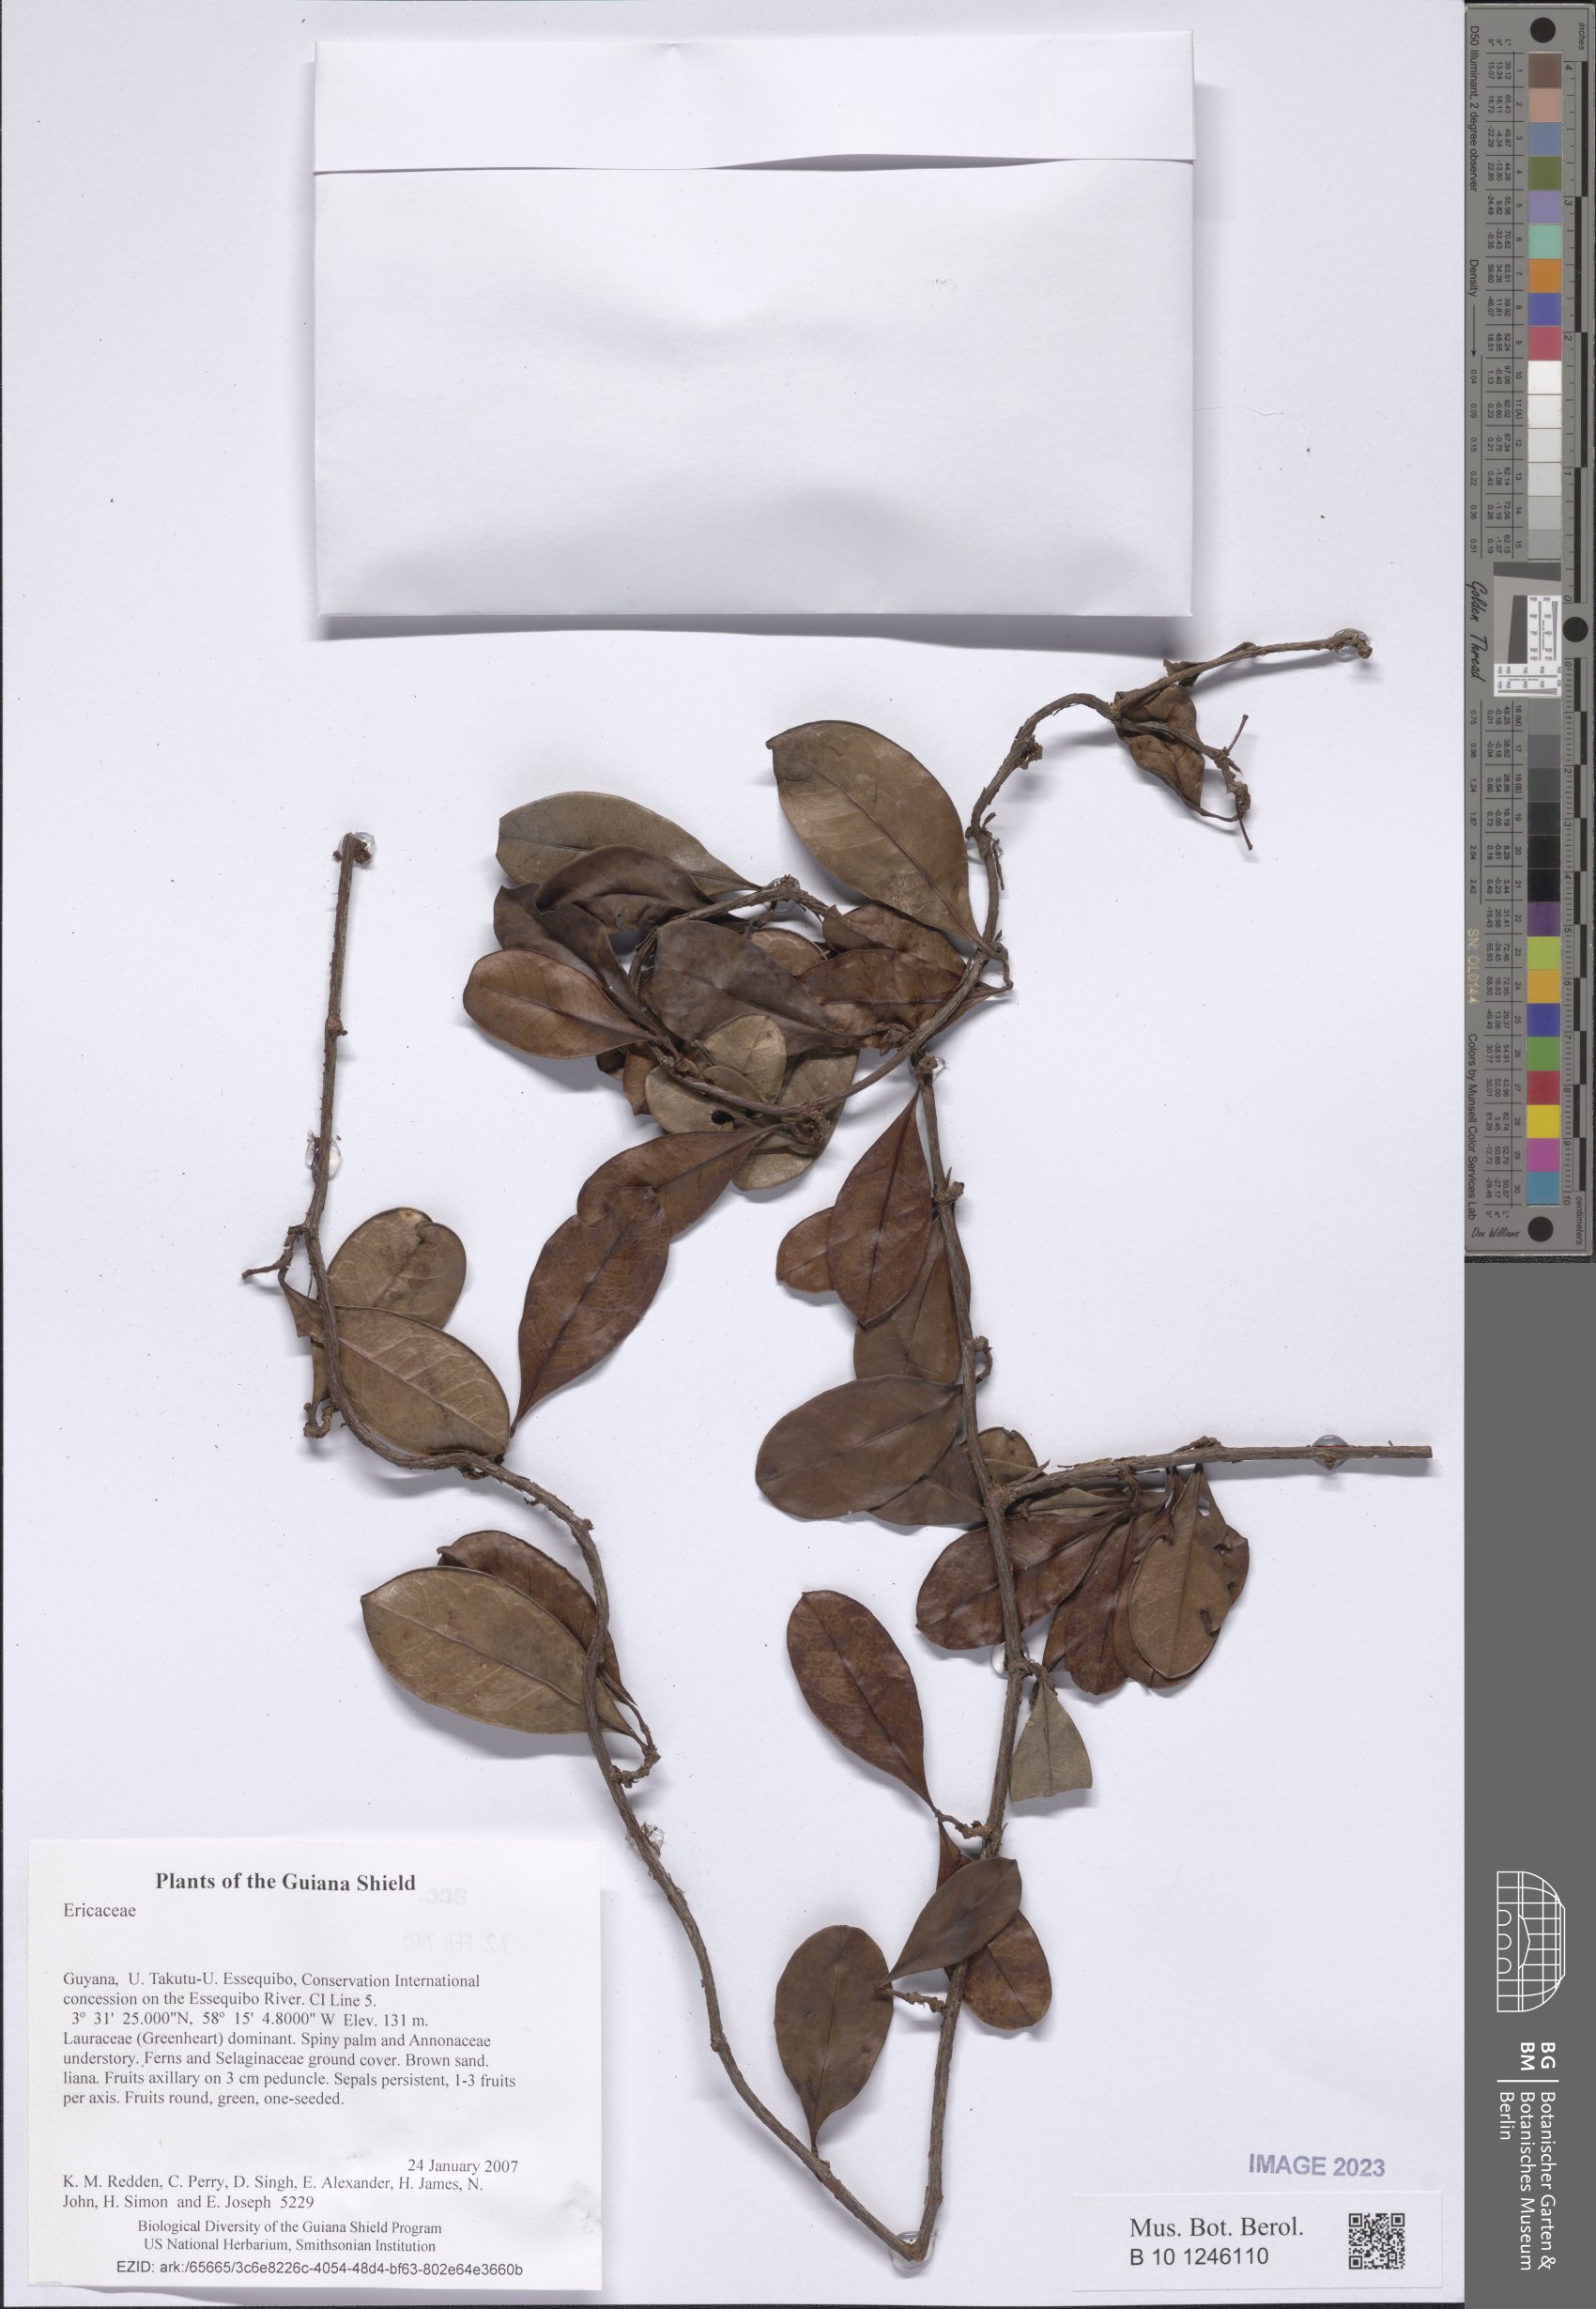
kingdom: Plantae
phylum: Tracheophyta
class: Magnoliopsida
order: Ericales
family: Ericaceae
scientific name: Ericaceae
